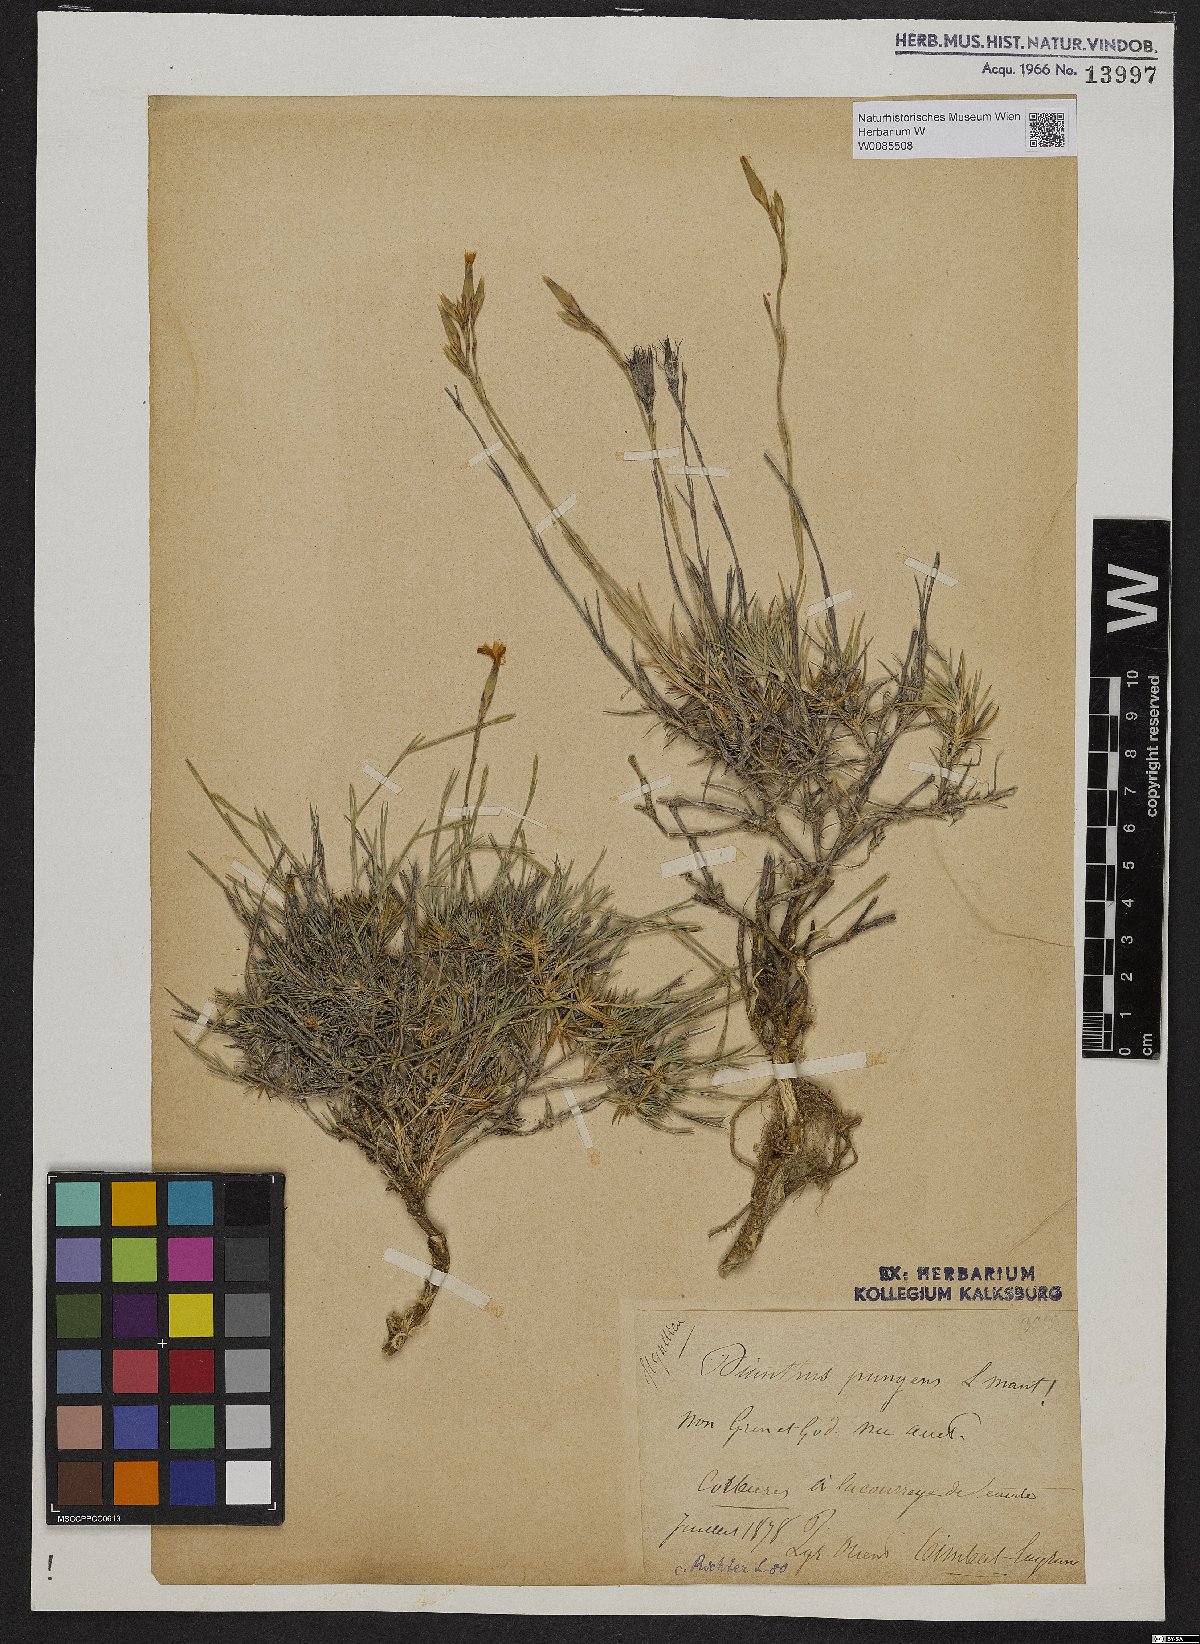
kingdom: Plantae
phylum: Tracheophyta
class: Magnoliopsida
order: Caryophyllales
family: Caryophyllaceae
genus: Dianthus
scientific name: Dianthus pungens
